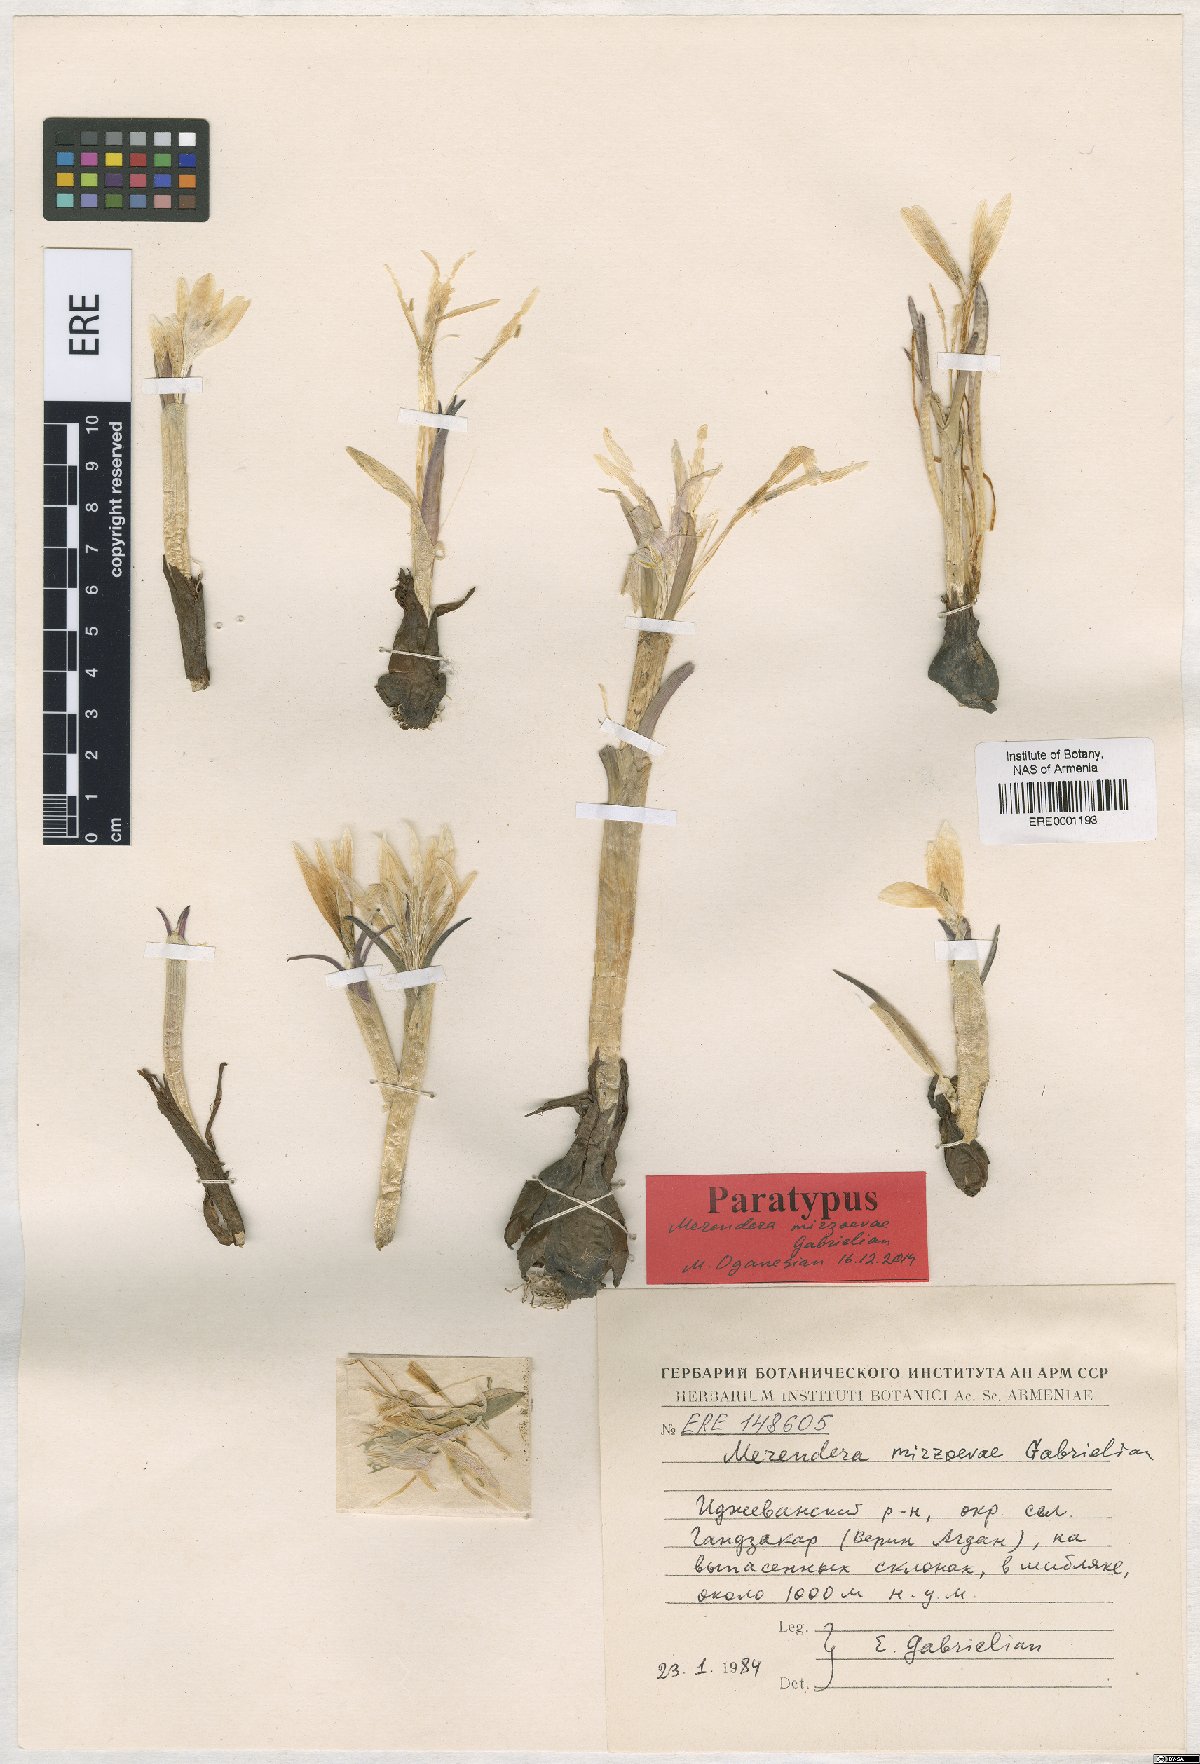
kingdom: Plantae
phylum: Tracheophyta
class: Liliopsida
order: Liliales
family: Colchicaceae
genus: Colchicum
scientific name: Colchicum trigynum
